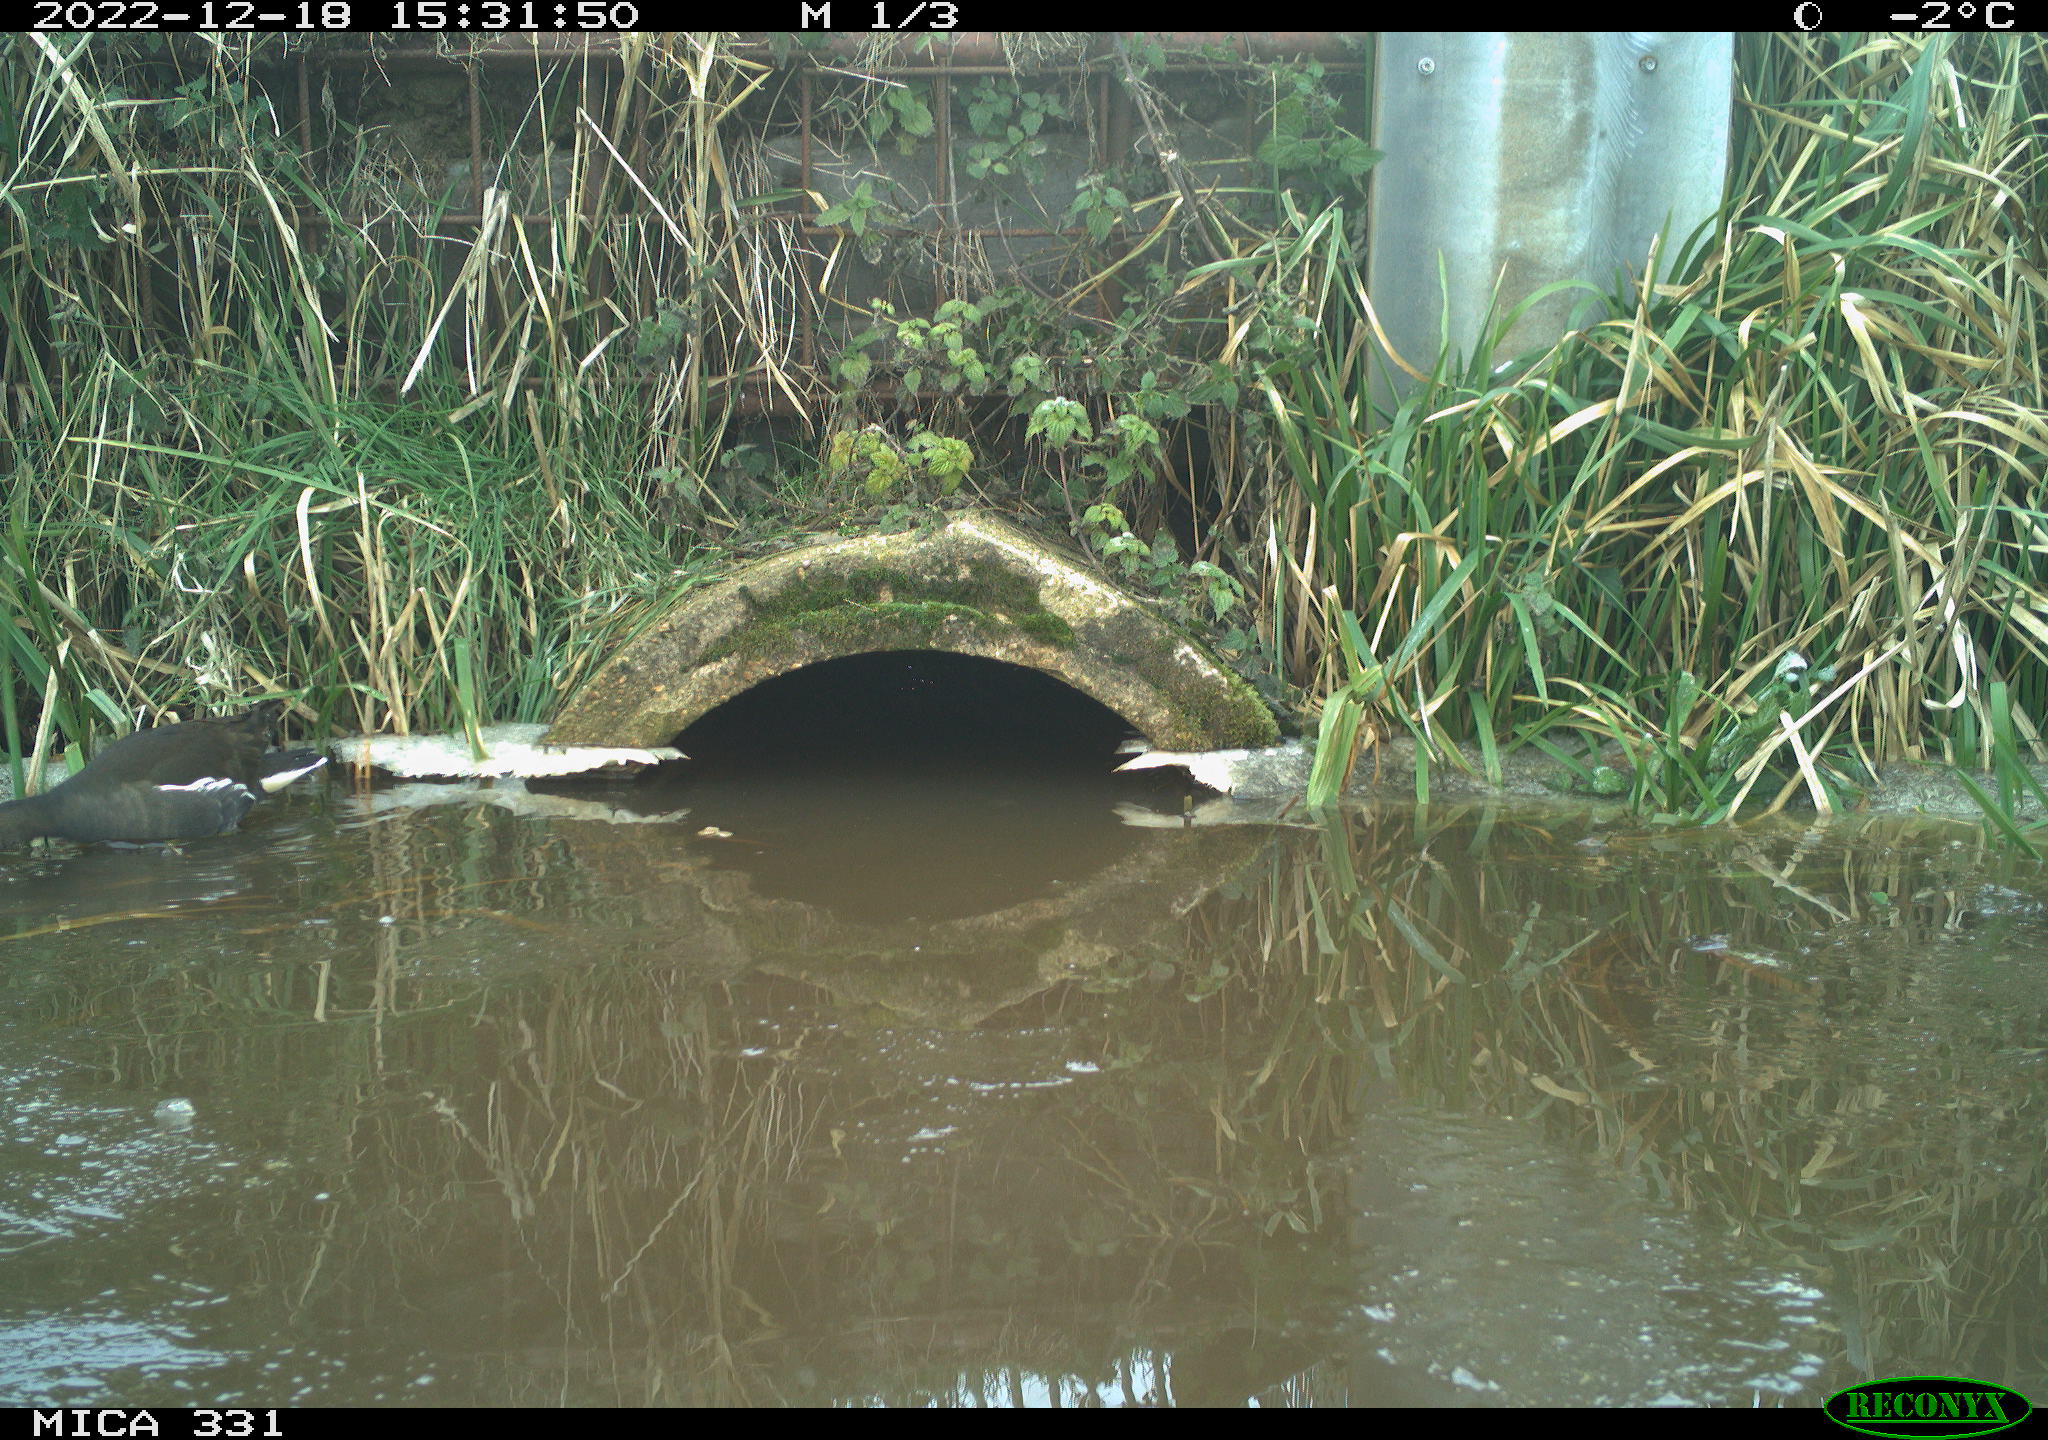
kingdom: Animalia
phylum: Chordata
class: Aves
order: Gruiformes
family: Rallidae
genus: Gallinula
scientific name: Gallinula chloropus
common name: Common moorhen
